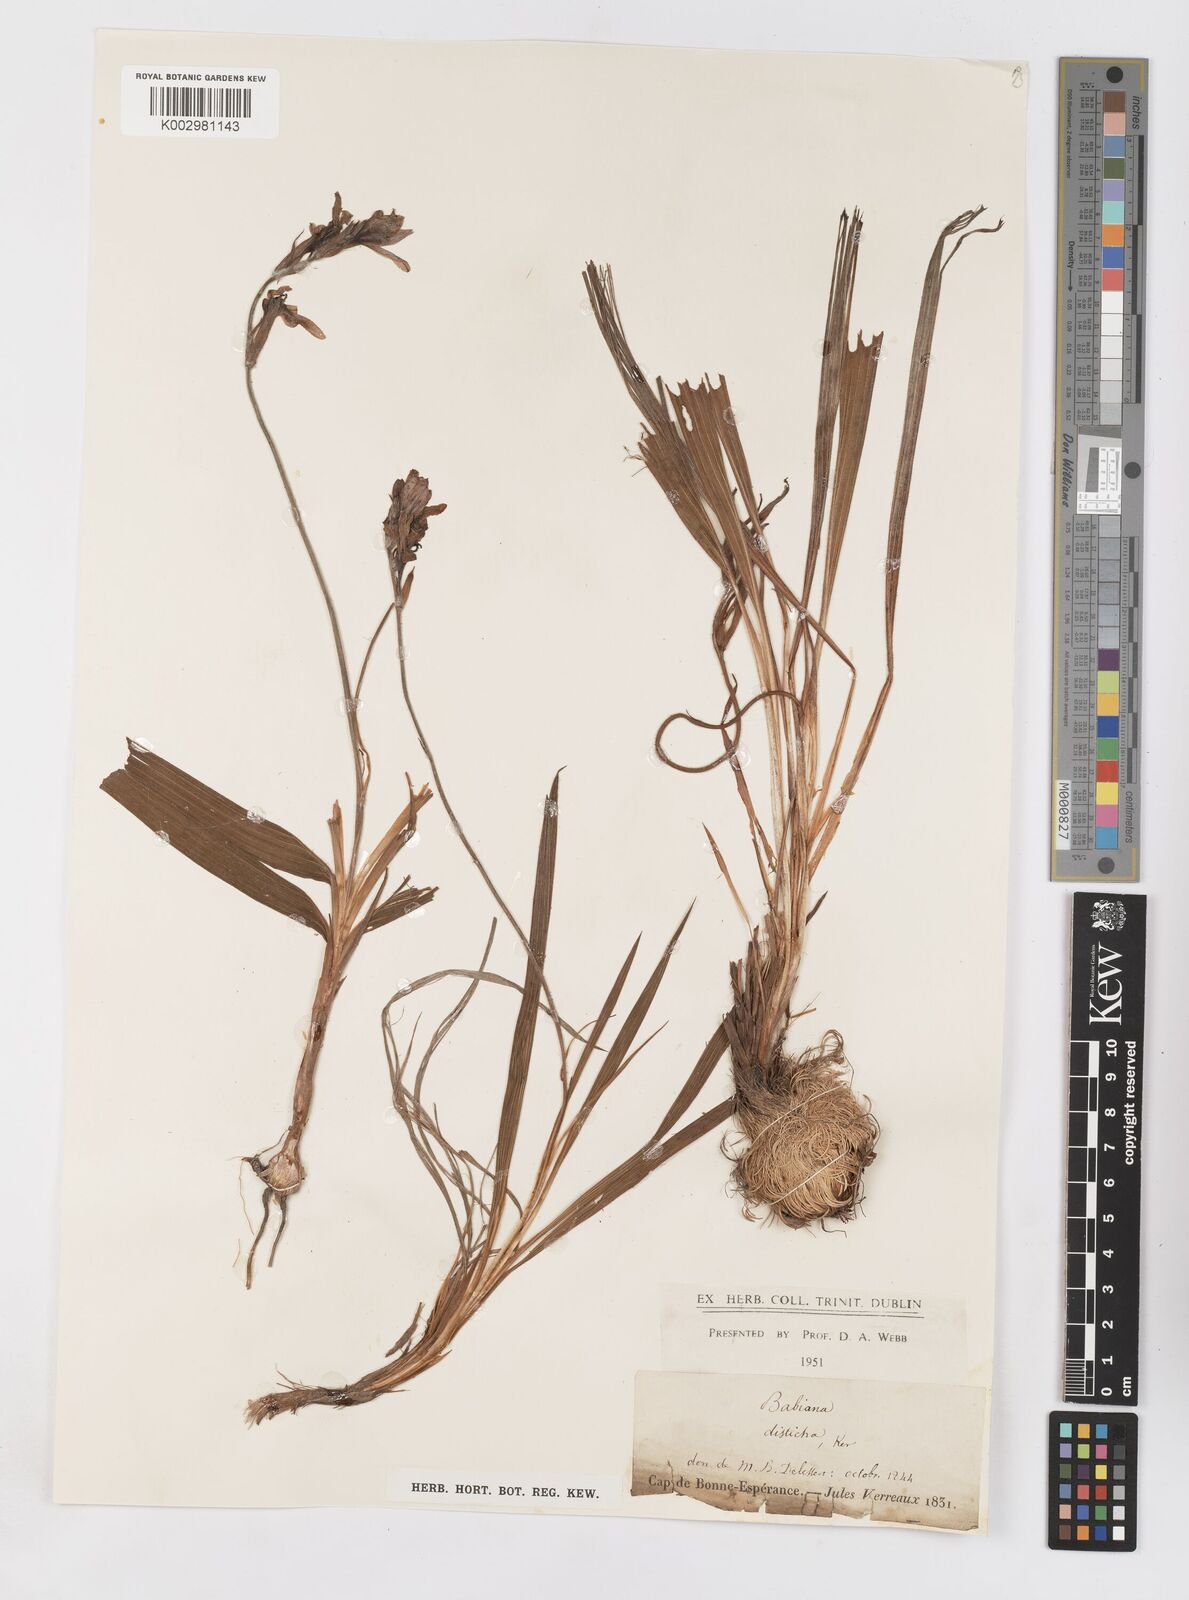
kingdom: Plantae
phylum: Tracheophyta
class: Liliopsida
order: Asparagales
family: Iridaceae
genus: Babiana
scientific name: Babiana
